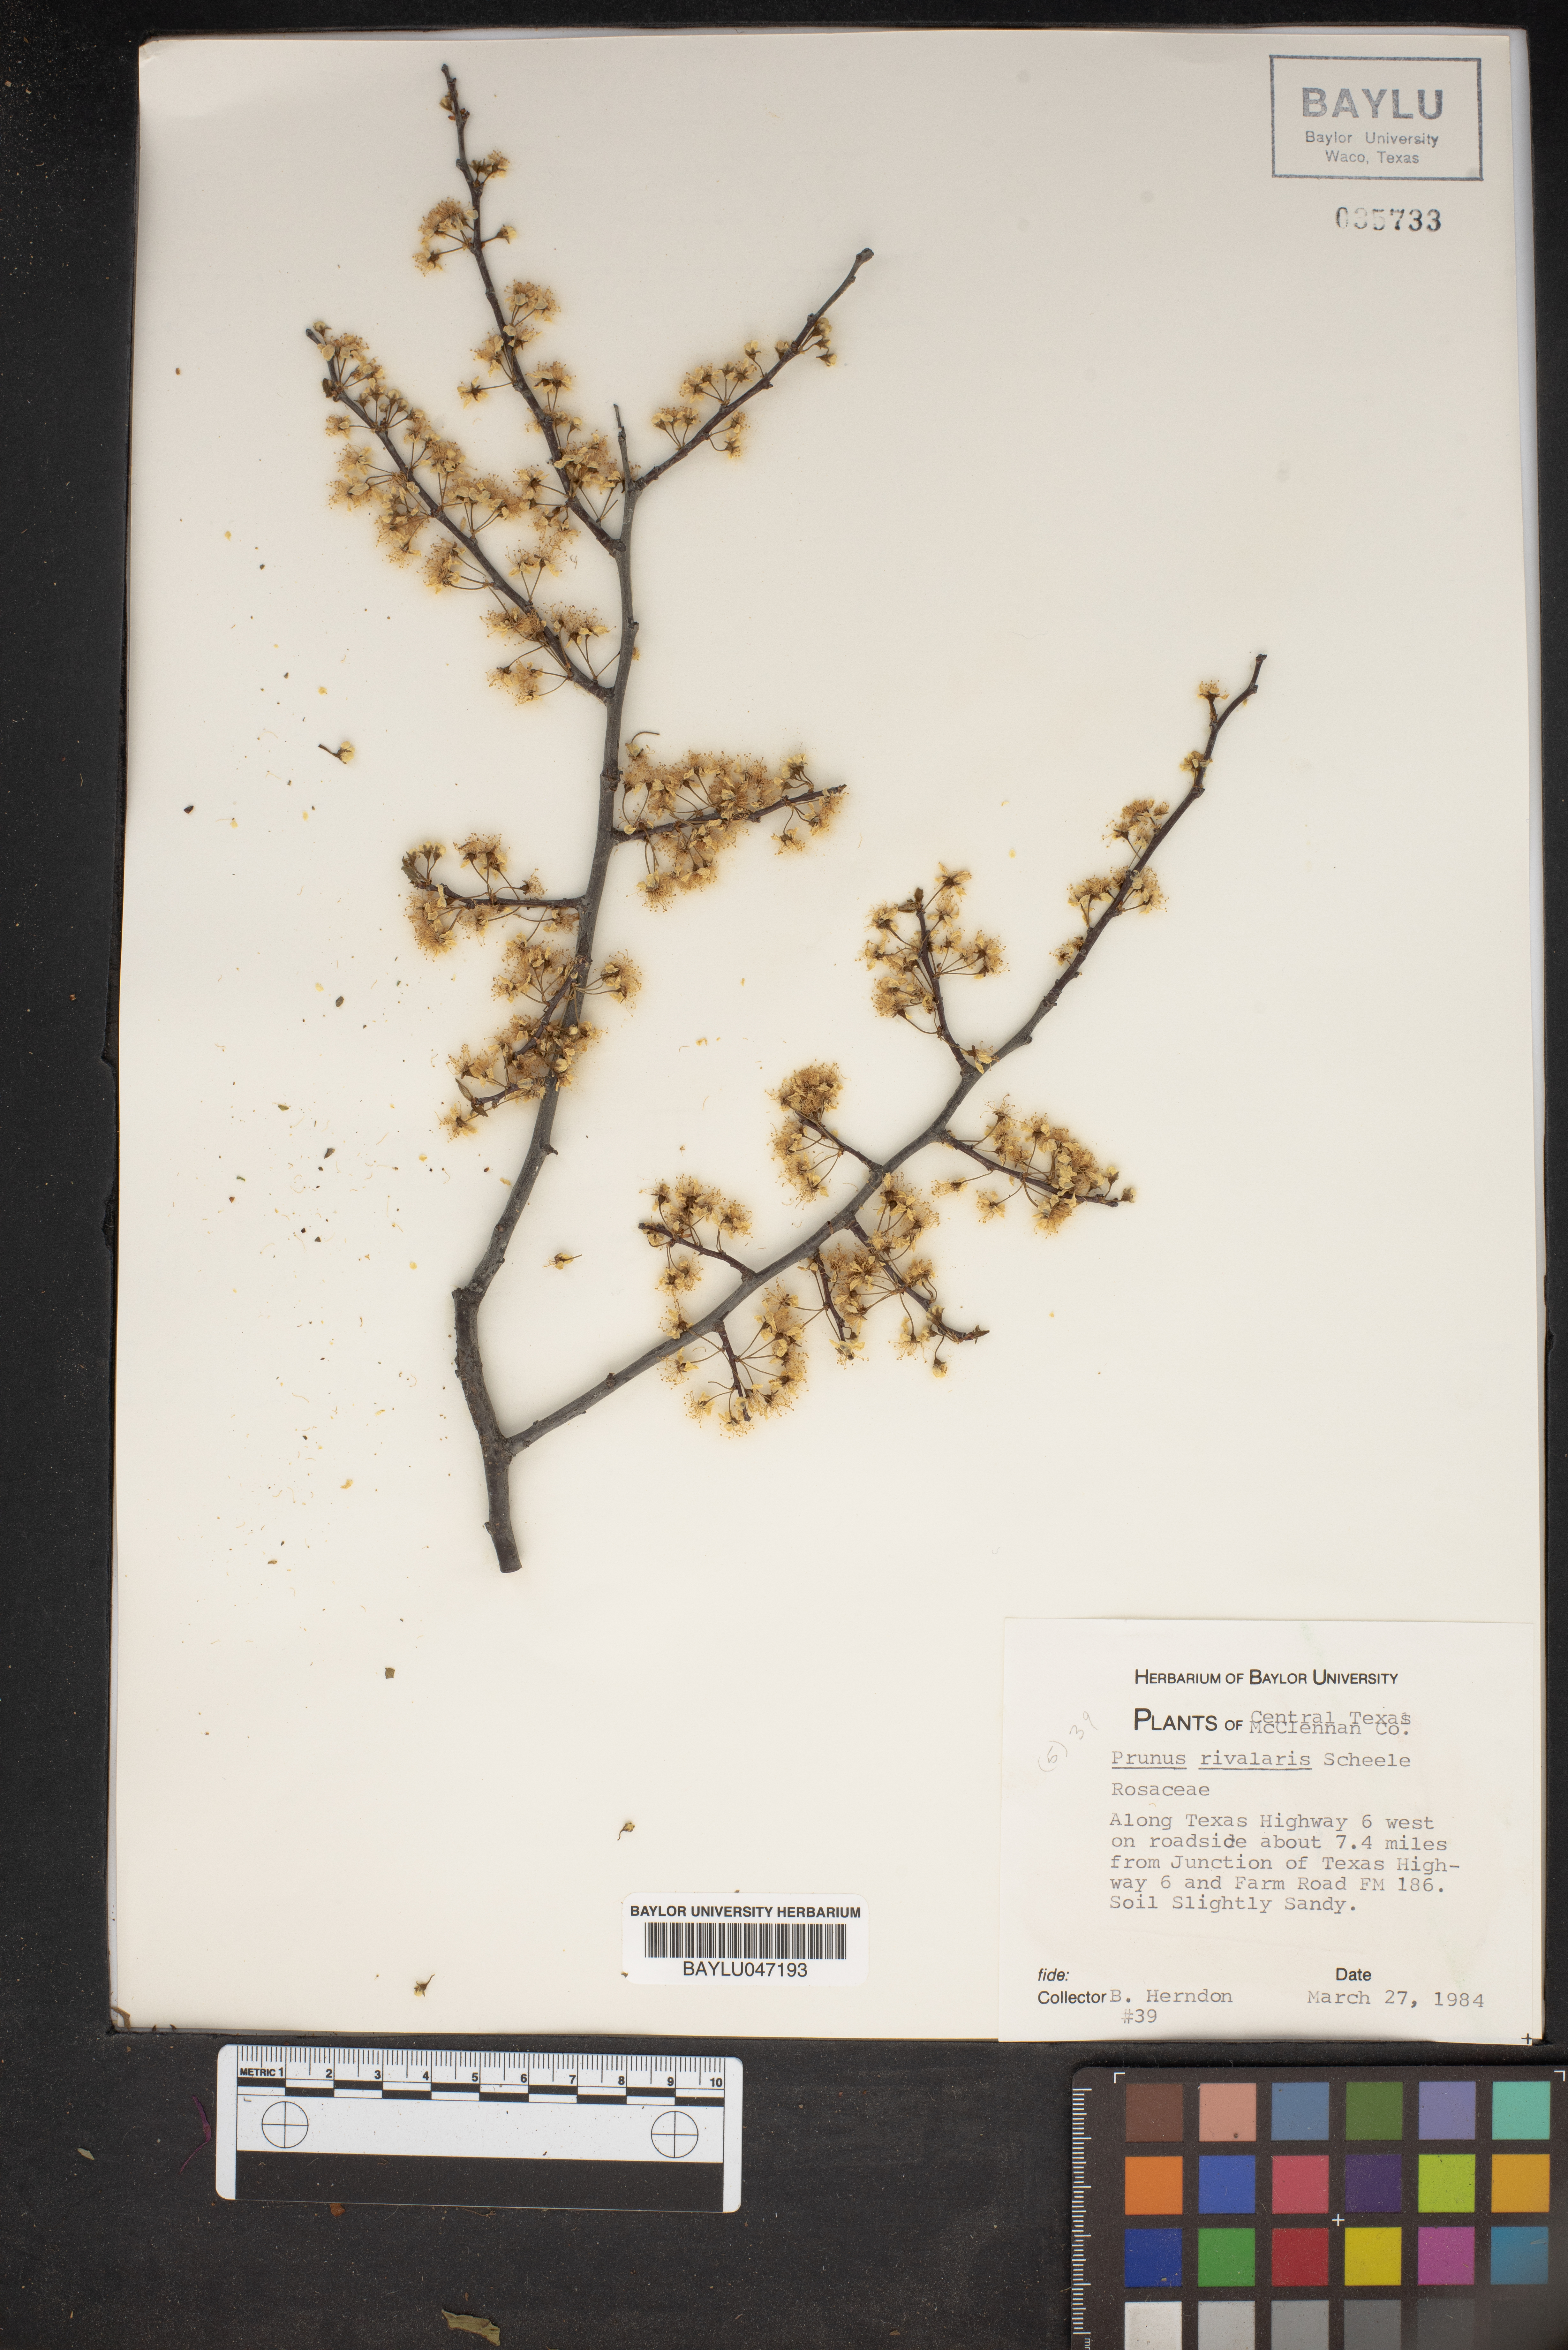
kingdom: Plantae
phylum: Tracheophyta
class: Magnoliopsida
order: Rosales
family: Rosaceae
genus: Prunus
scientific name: Prunus rivularis
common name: Creek plum
